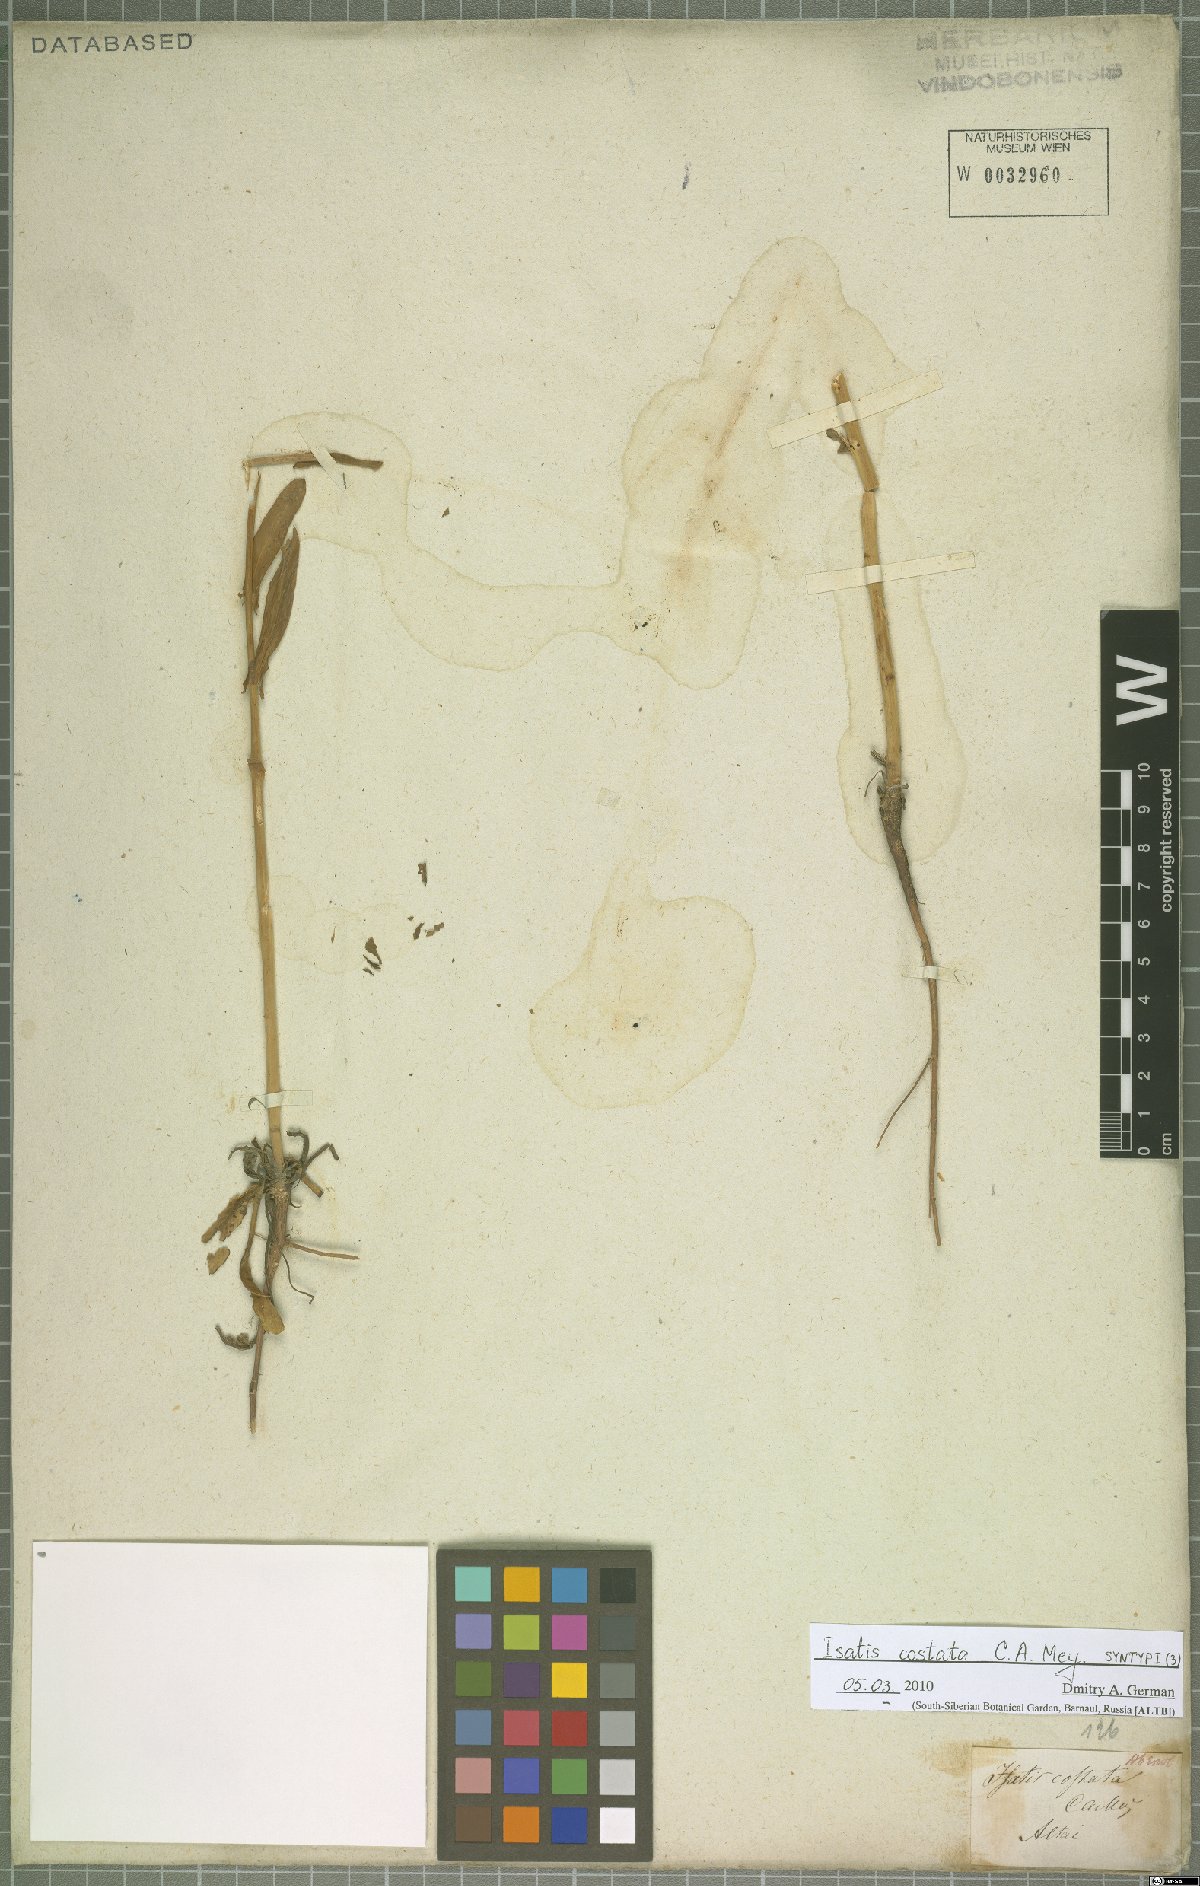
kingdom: Plantae
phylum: Tracheophyta
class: Magnoliopsida
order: Brassicales
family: Brassicaceae
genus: Isatis
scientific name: Isatis costata
